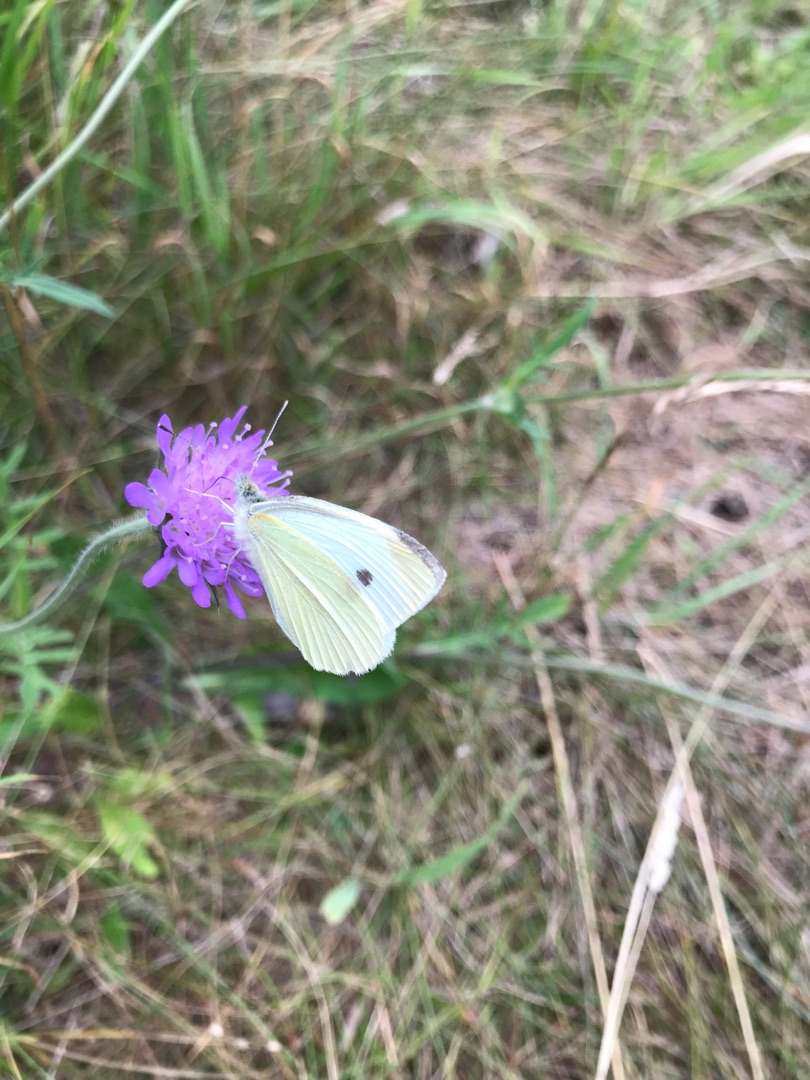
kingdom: Animalia
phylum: Arthropoda
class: Insecta
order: Lepidoptera
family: Pieridae
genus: Pieris
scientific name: Pieris rapae
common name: Lille kålsommerfugl
